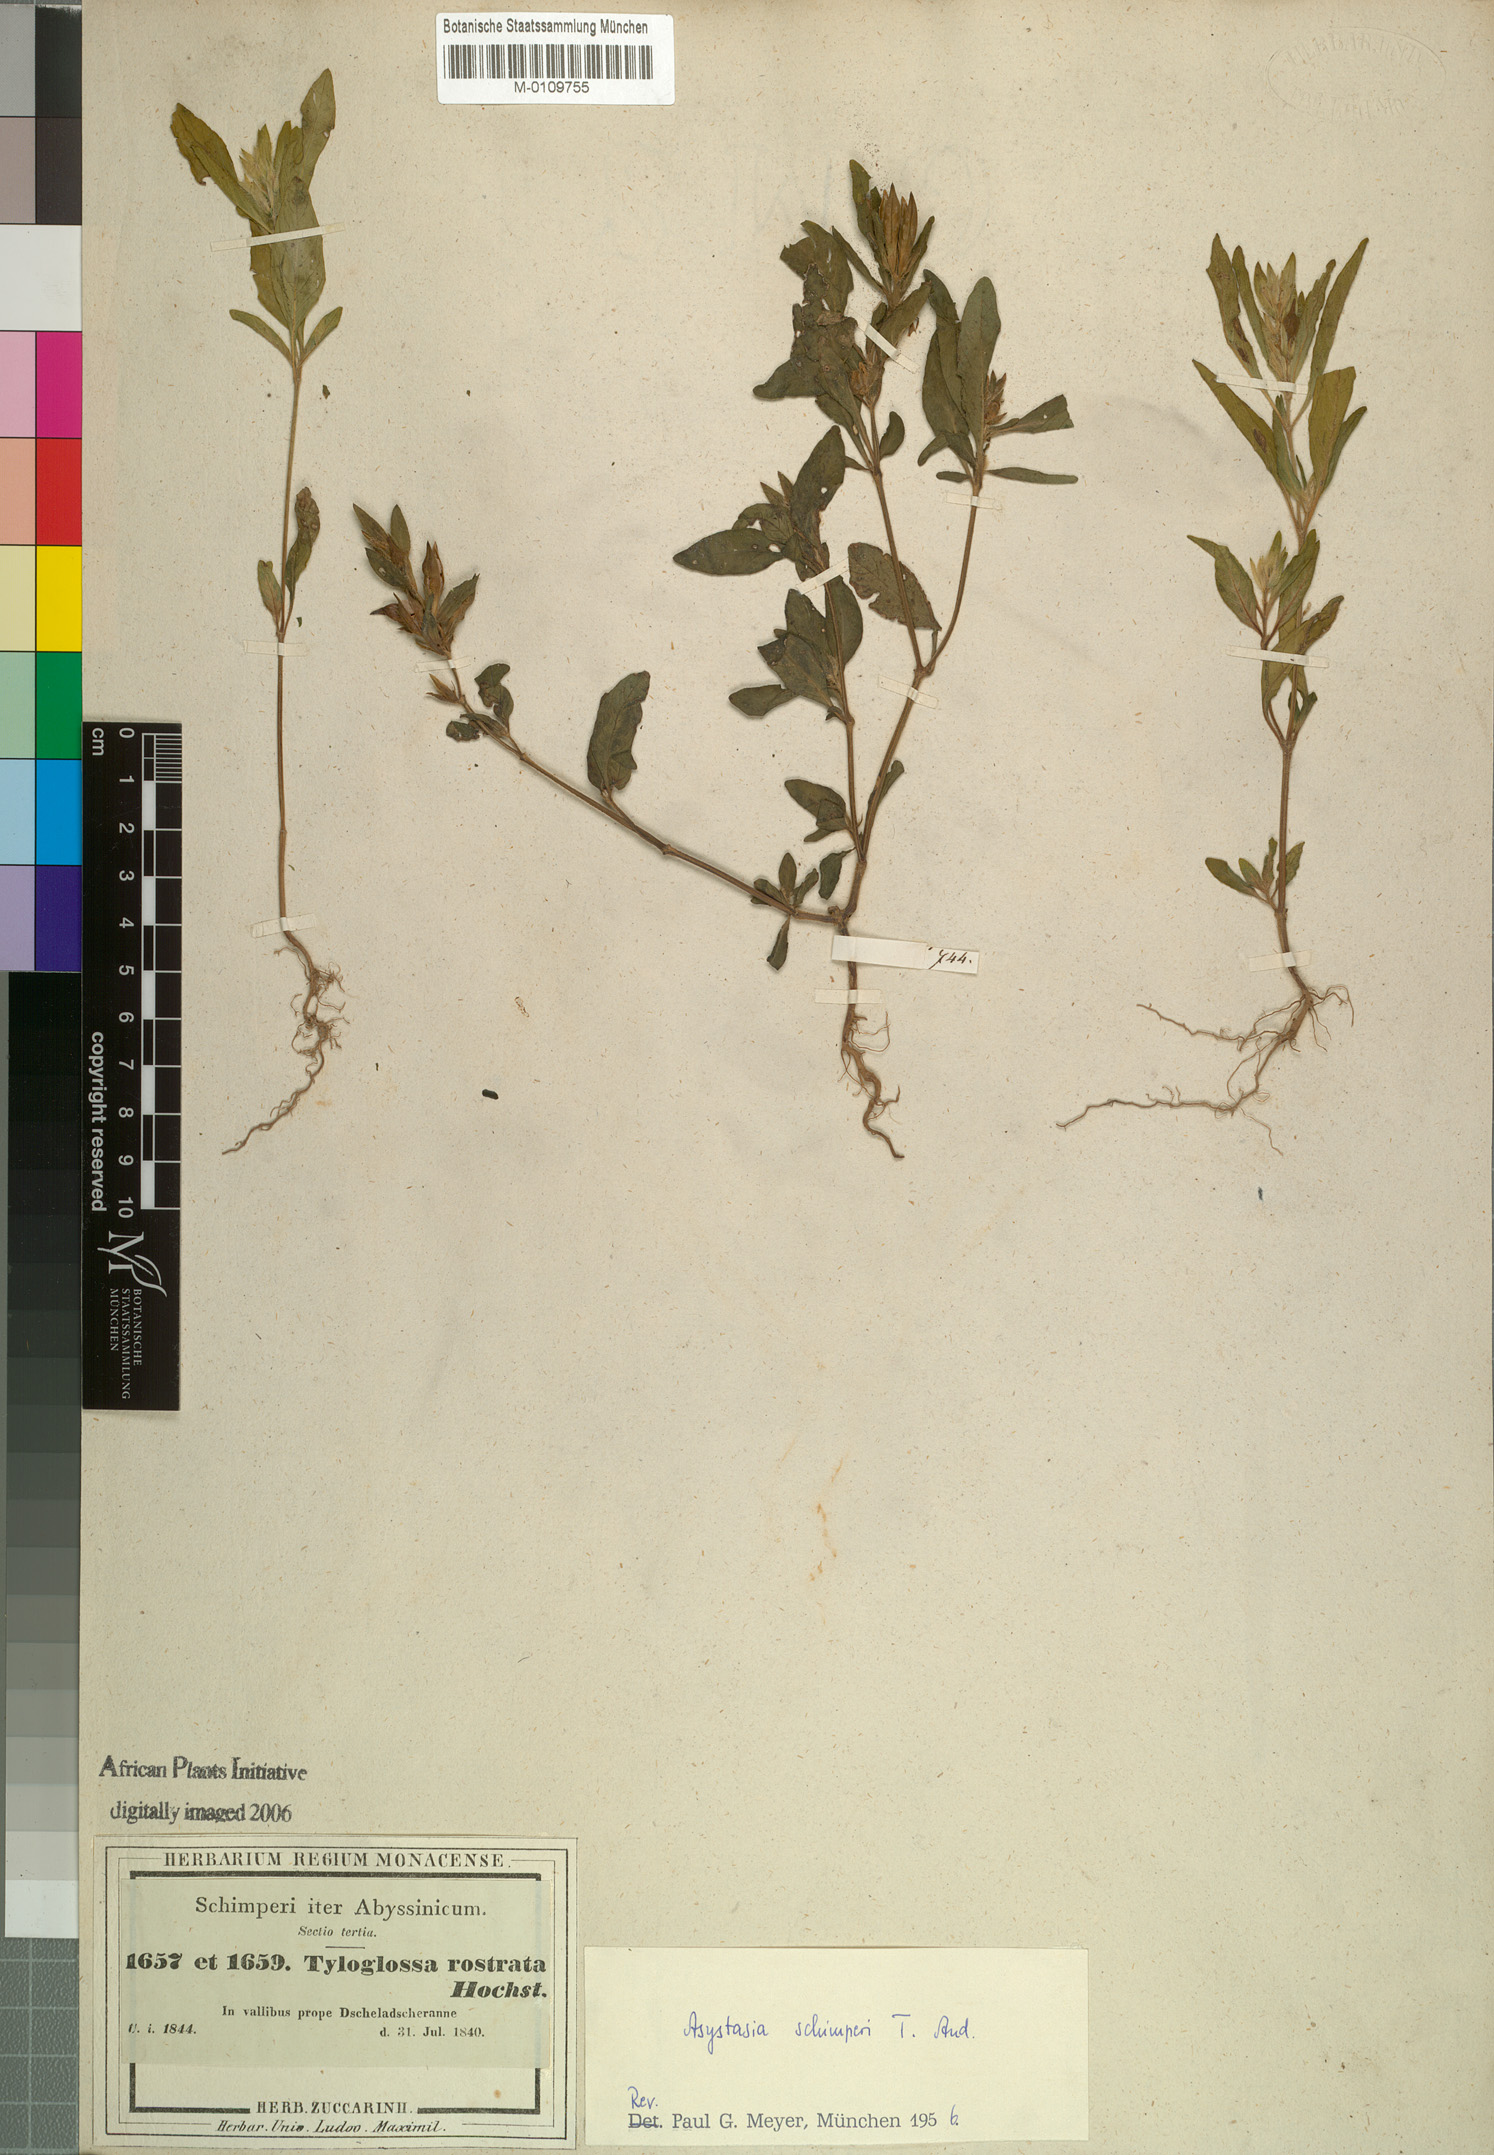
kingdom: Plantae
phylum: Tracheophyta
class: Magnoliopsida
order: Lamiales
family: Acanthaceae
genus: Justicia
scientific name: Justicia ladanoides
